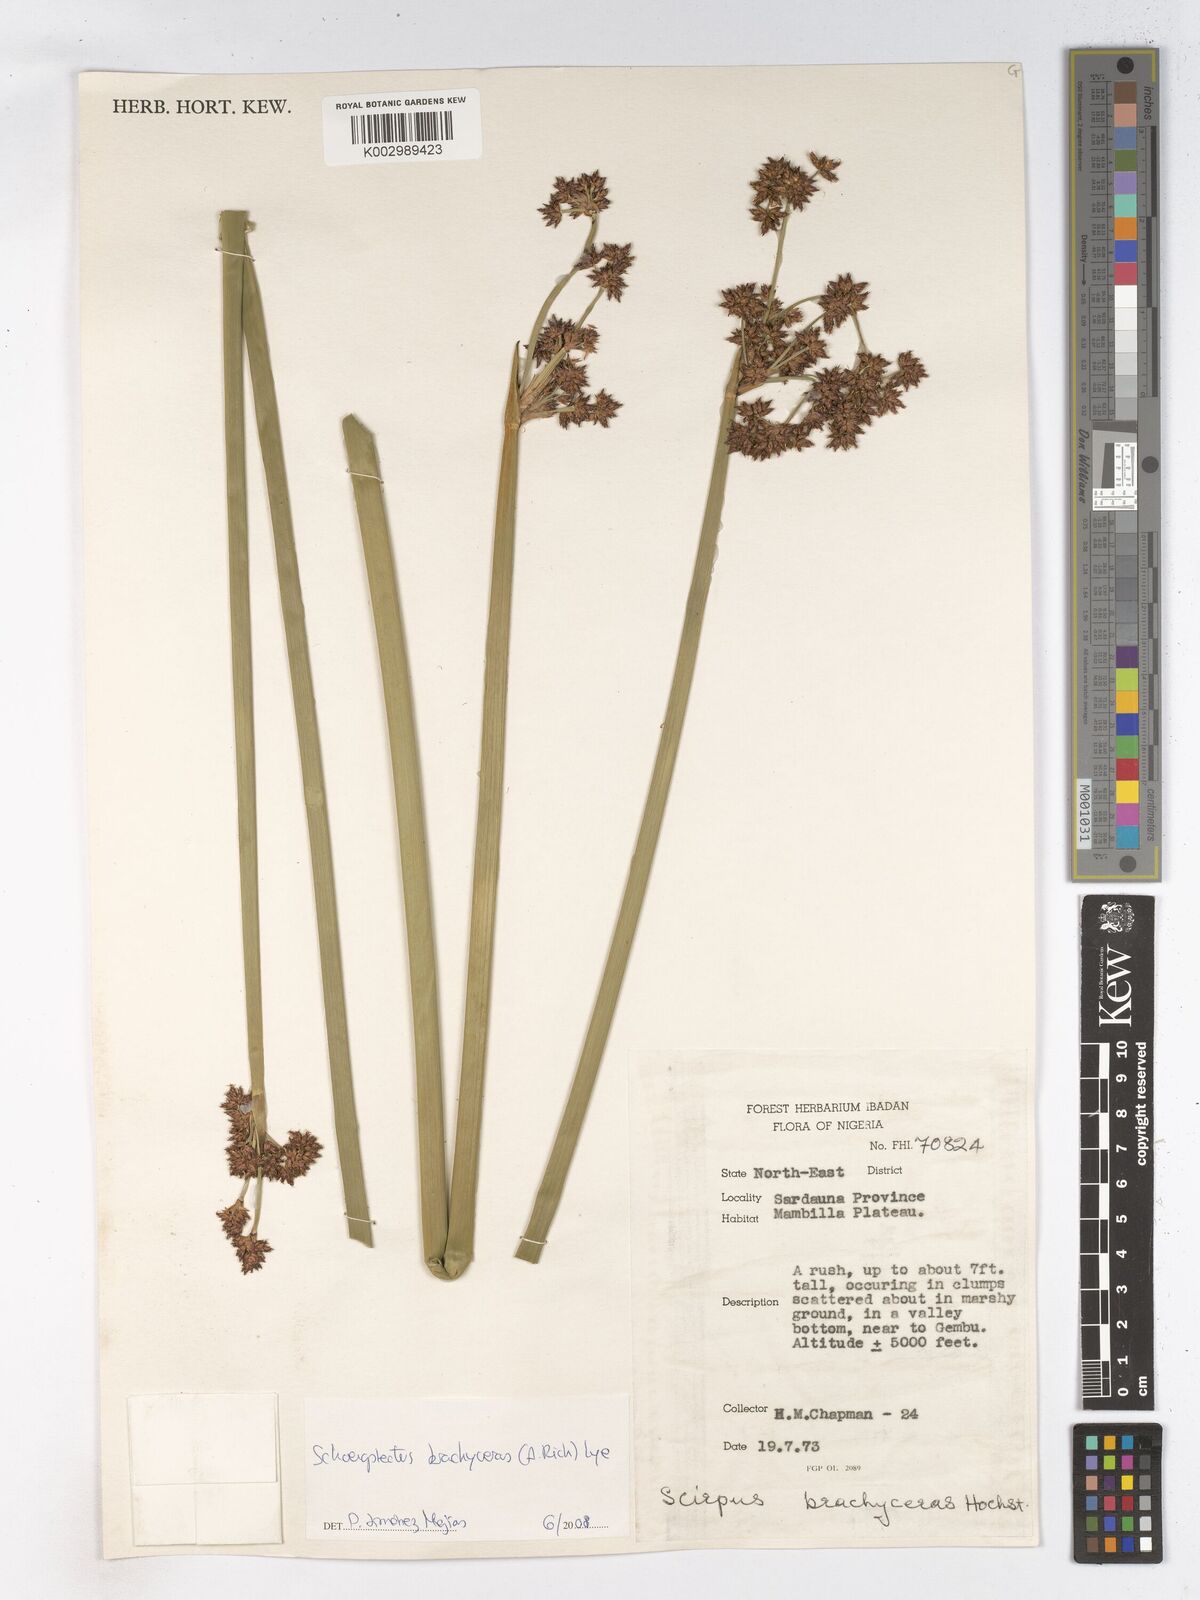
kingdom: Plantae
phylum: Tracheophyta
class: Liliopsida
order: Poales
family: Cyperaceae
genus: Schoenoplectiella
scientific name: Schoenoplectiella corymbosa
